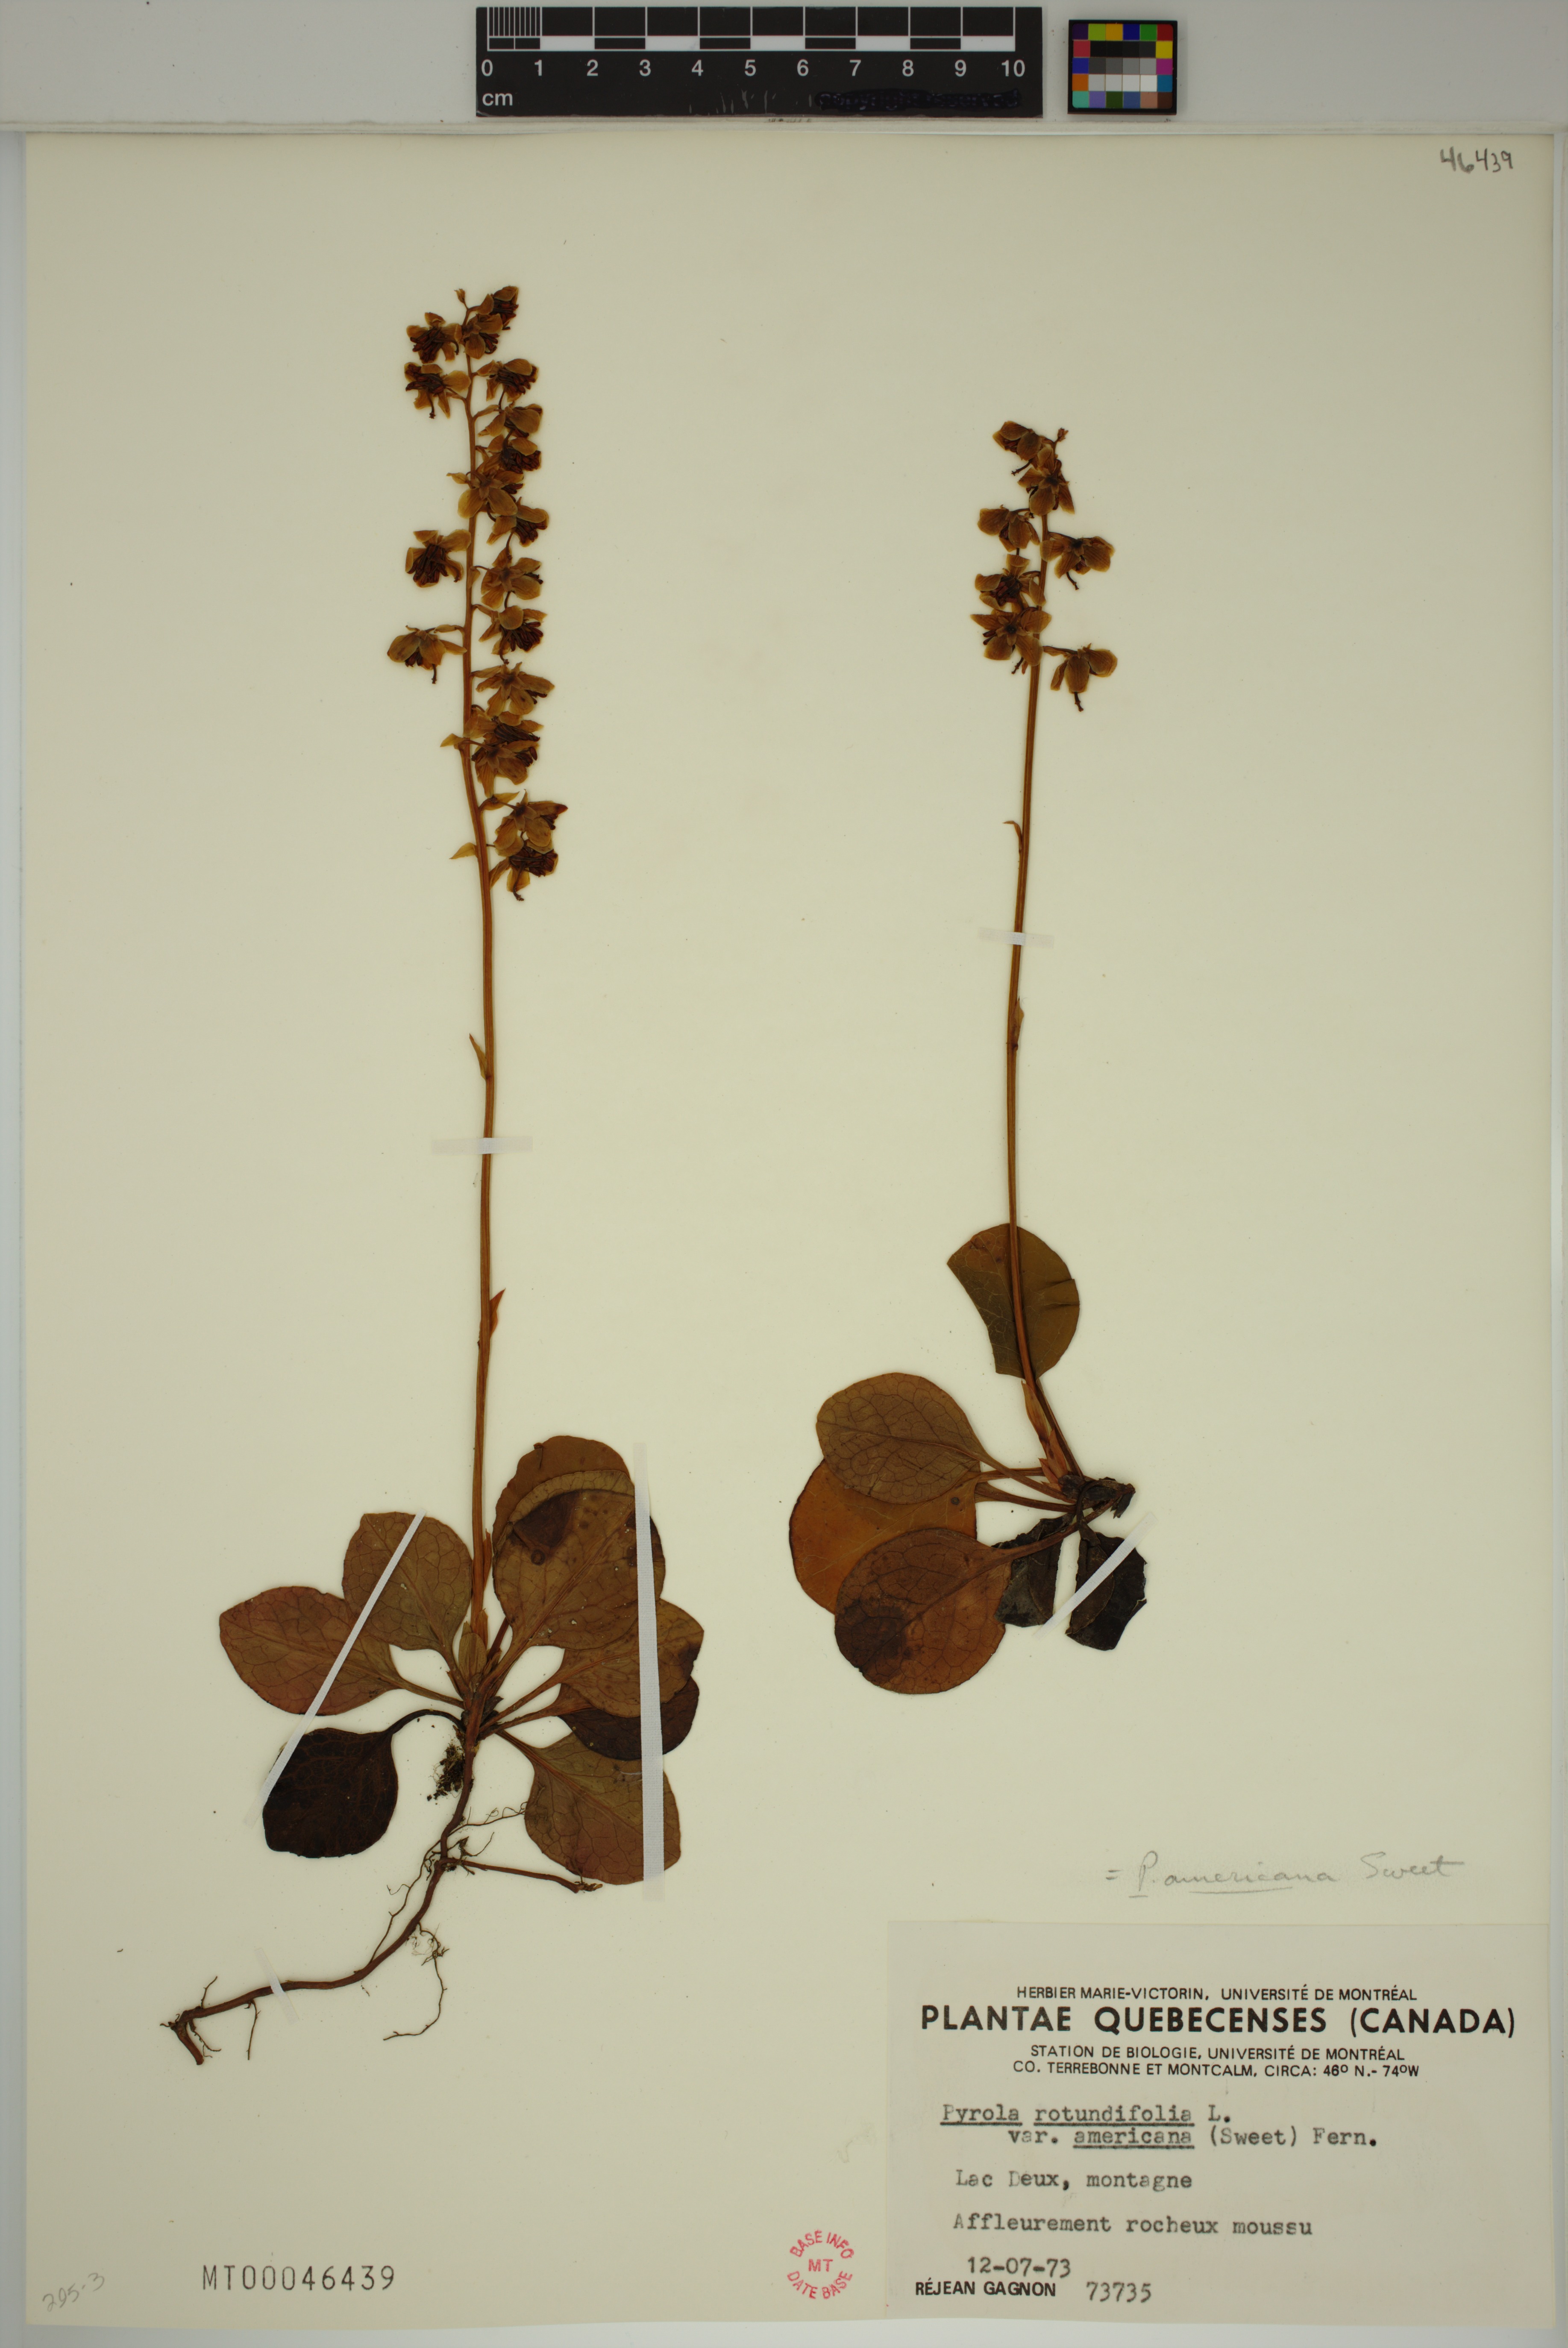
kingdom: Plantae
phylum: Tracheophyta
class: Magnoliopsida
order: Ericales
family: Ericaceae
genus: Pyrola
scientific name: Pyrola americana
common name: American wintergreen
